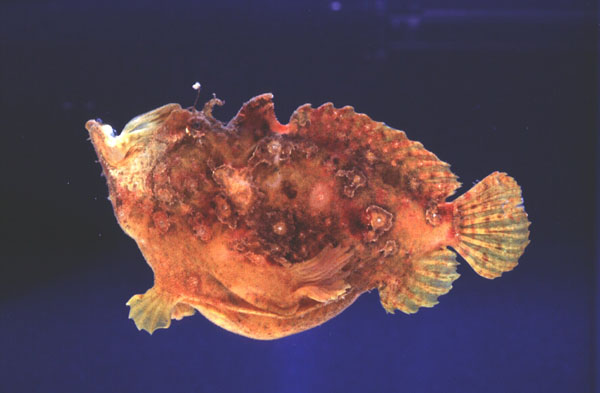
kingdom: Animalia
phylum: Chordata
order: Lophiiformes
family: Antennariidae
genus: Antennatus
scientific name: Antennatus coccineus
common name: Scarlet frogfish
